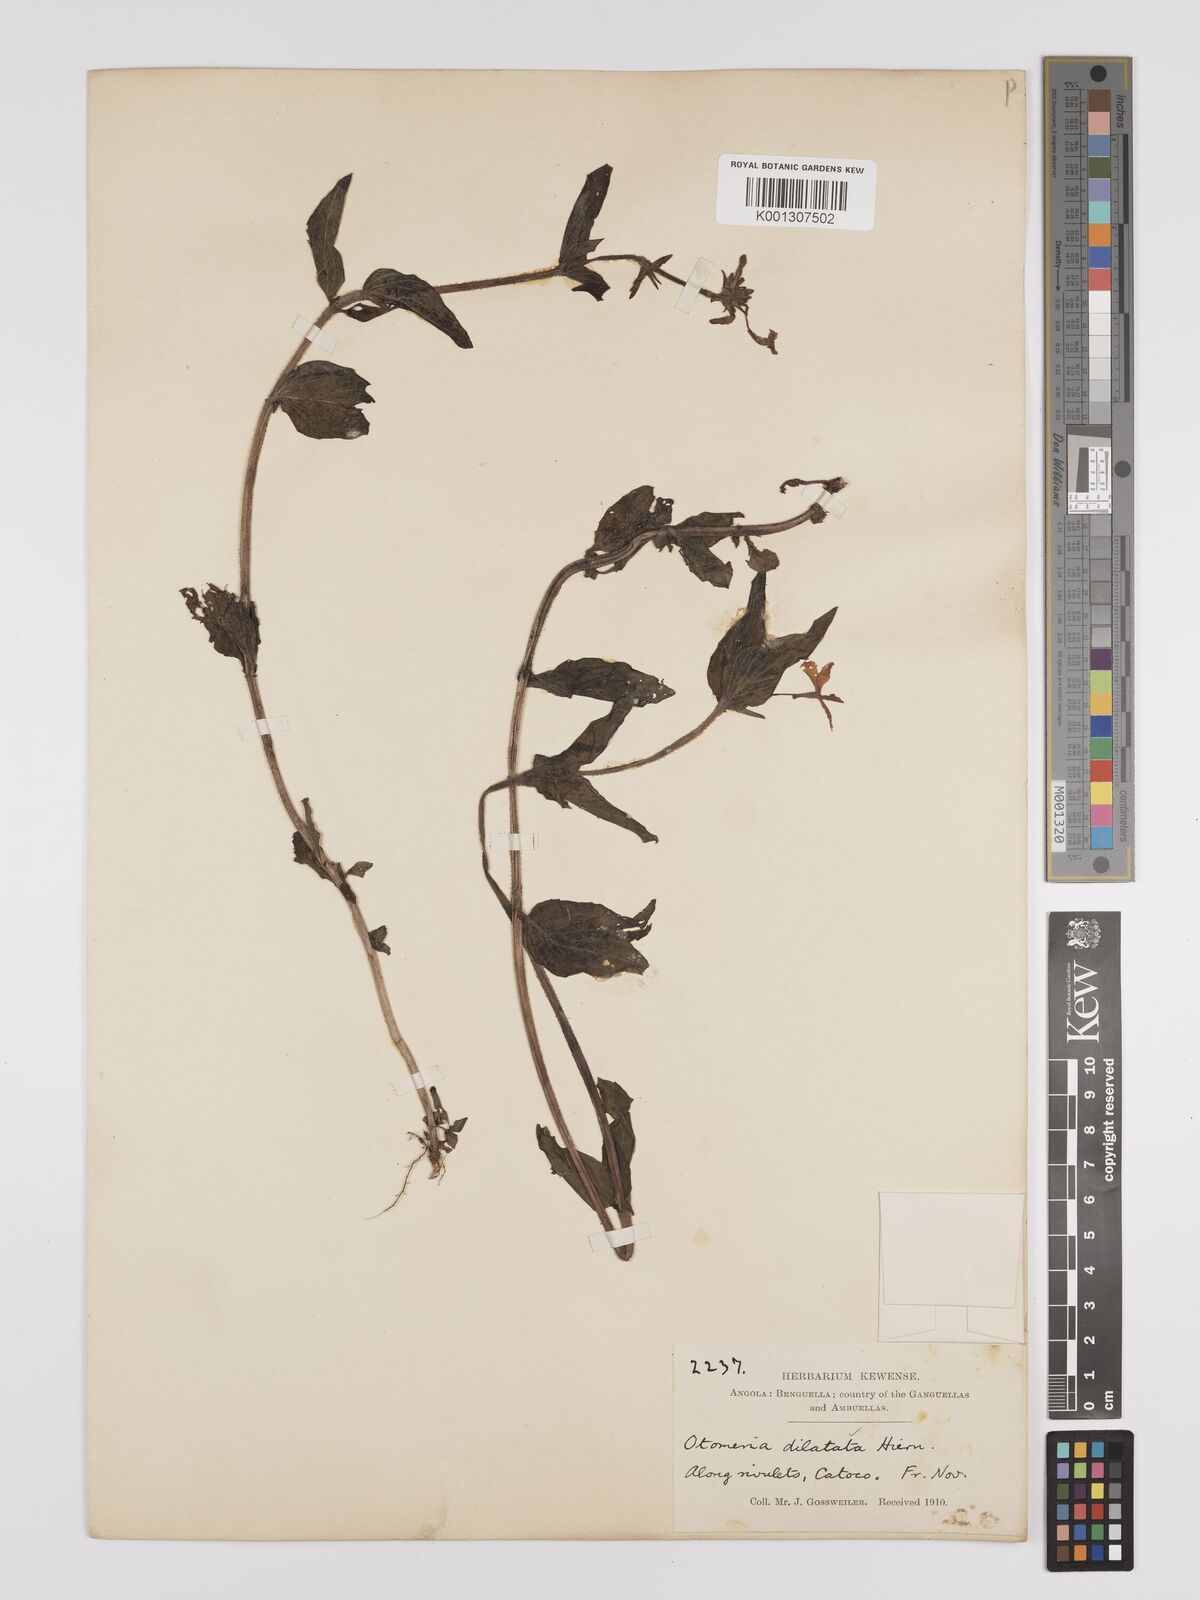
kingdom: Plantae
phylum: Tracheophyta
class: Magnoliopsida
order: Gentianales
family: Rubiaceae
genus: Otomeria
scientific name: Otomeria elatior
